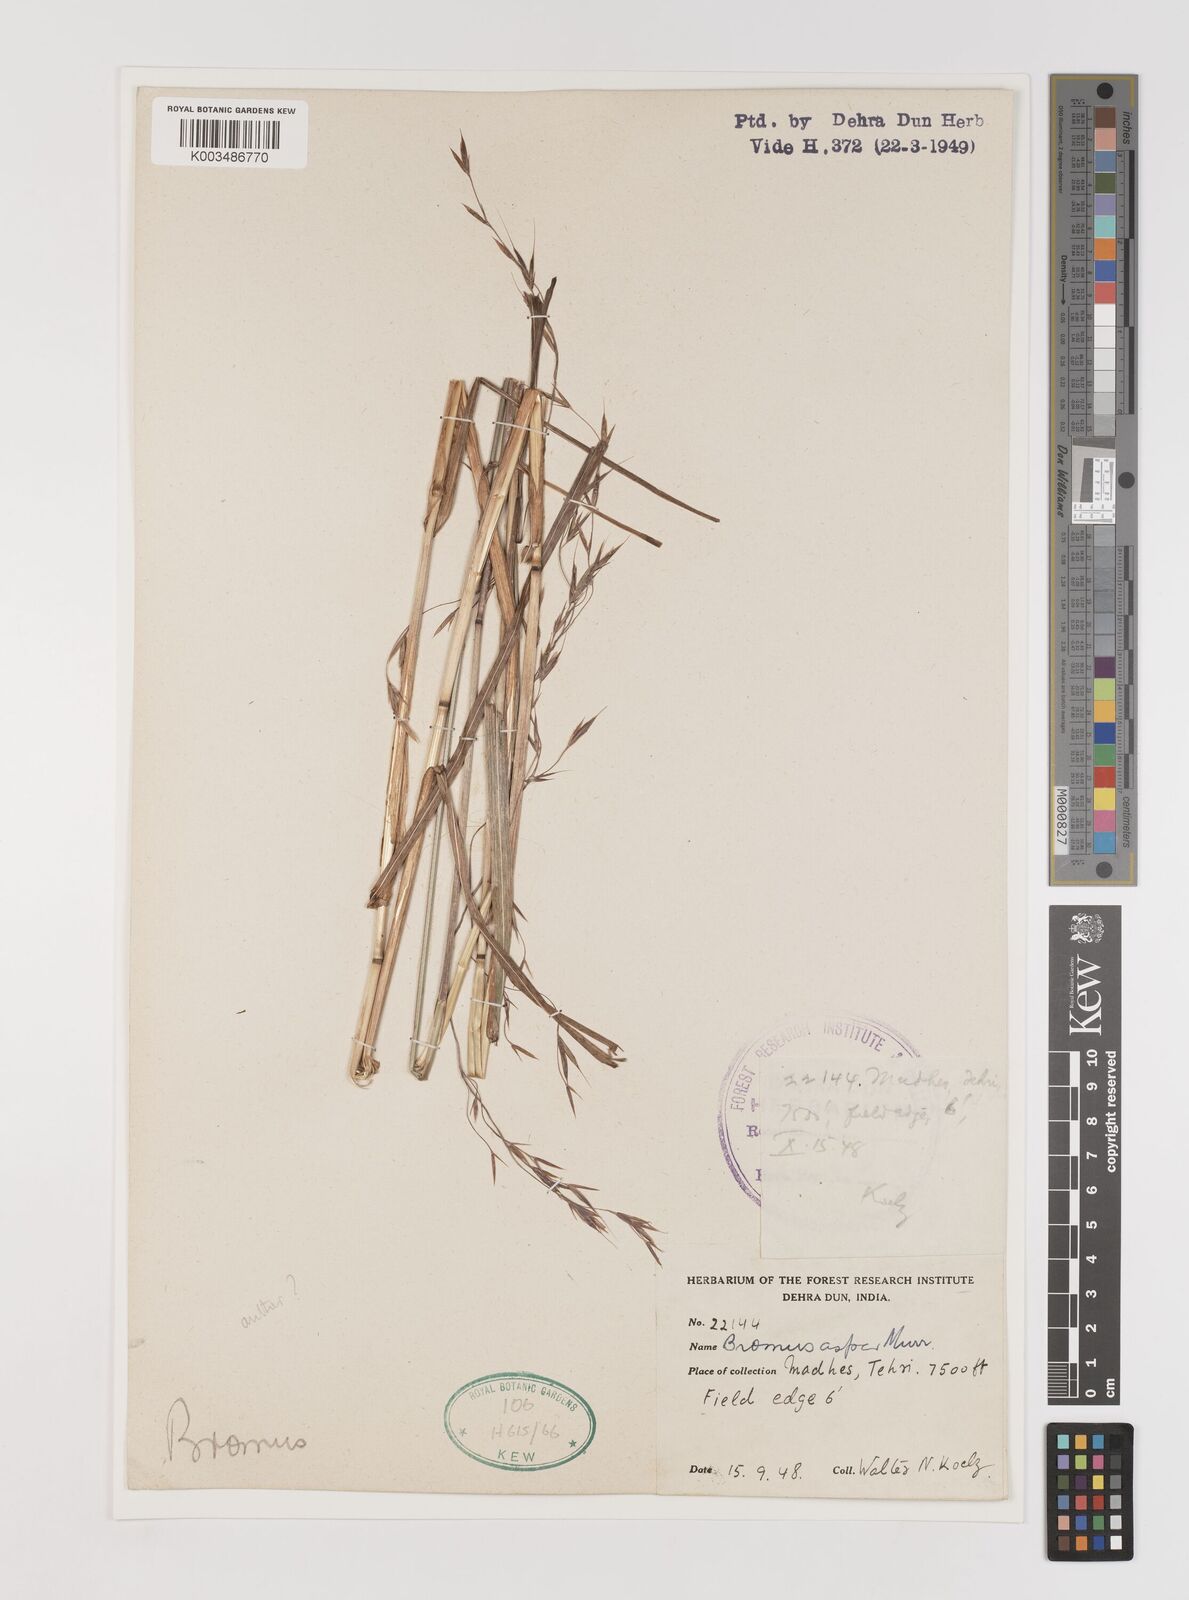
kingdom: Plantae
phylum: Tracheophyta
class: Liliopsida
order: Poales
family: Poaceae
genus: Brachypodium
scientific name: Brachypodium retusum
